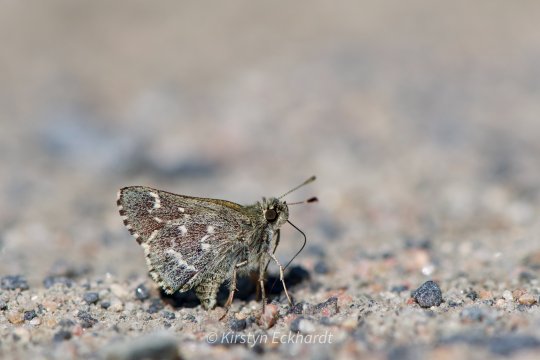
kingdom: Animalia
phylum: Arthropoda
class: Insecta
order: Lepidoptera
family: Hesperiidae
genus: Mastor
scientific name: Mastor hegon
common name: Pepper and Salt Skipper
